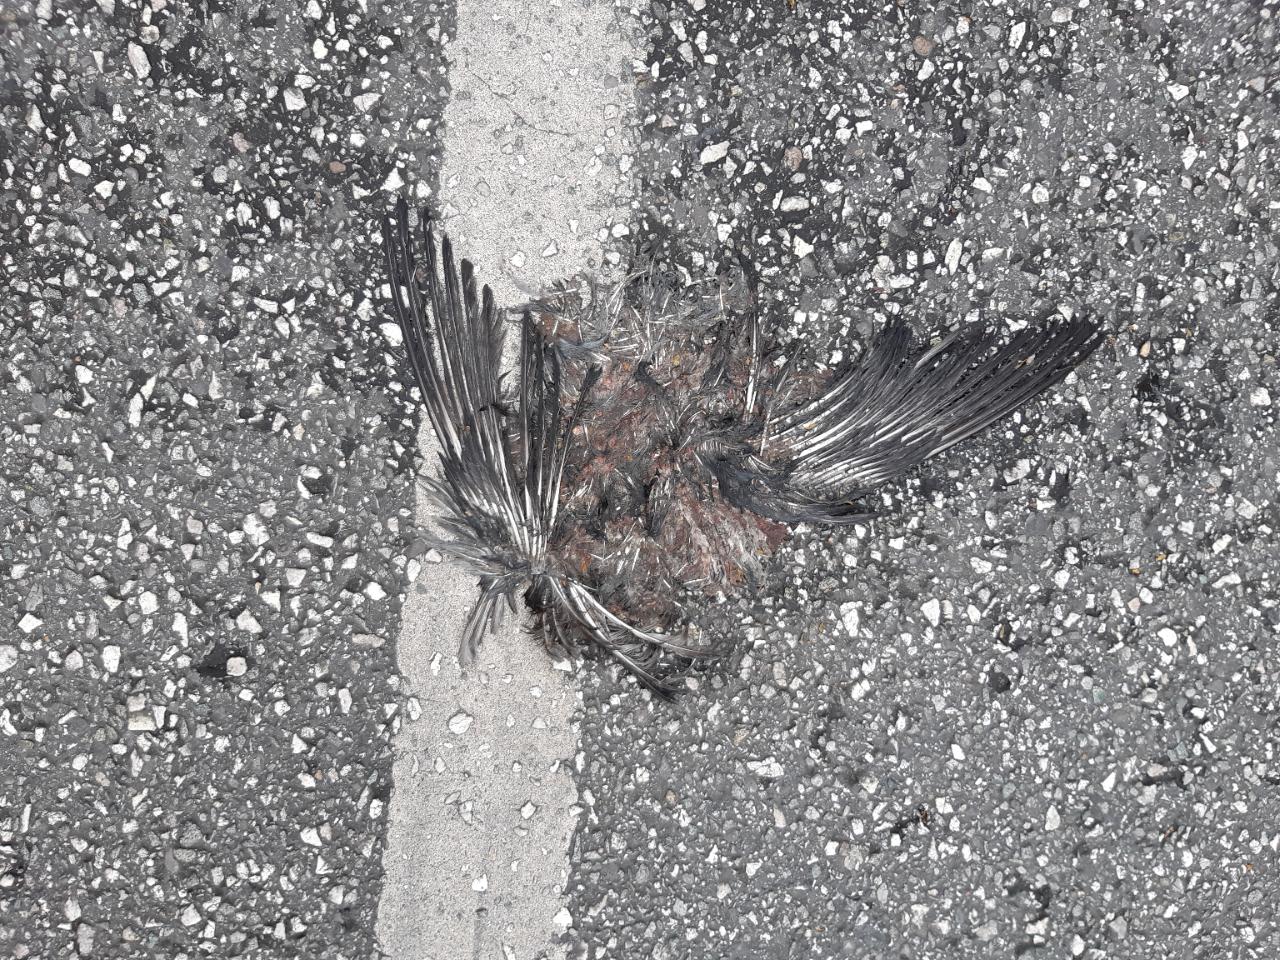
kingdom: Animalia
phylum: Chordata
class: Aves
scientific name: Aves
